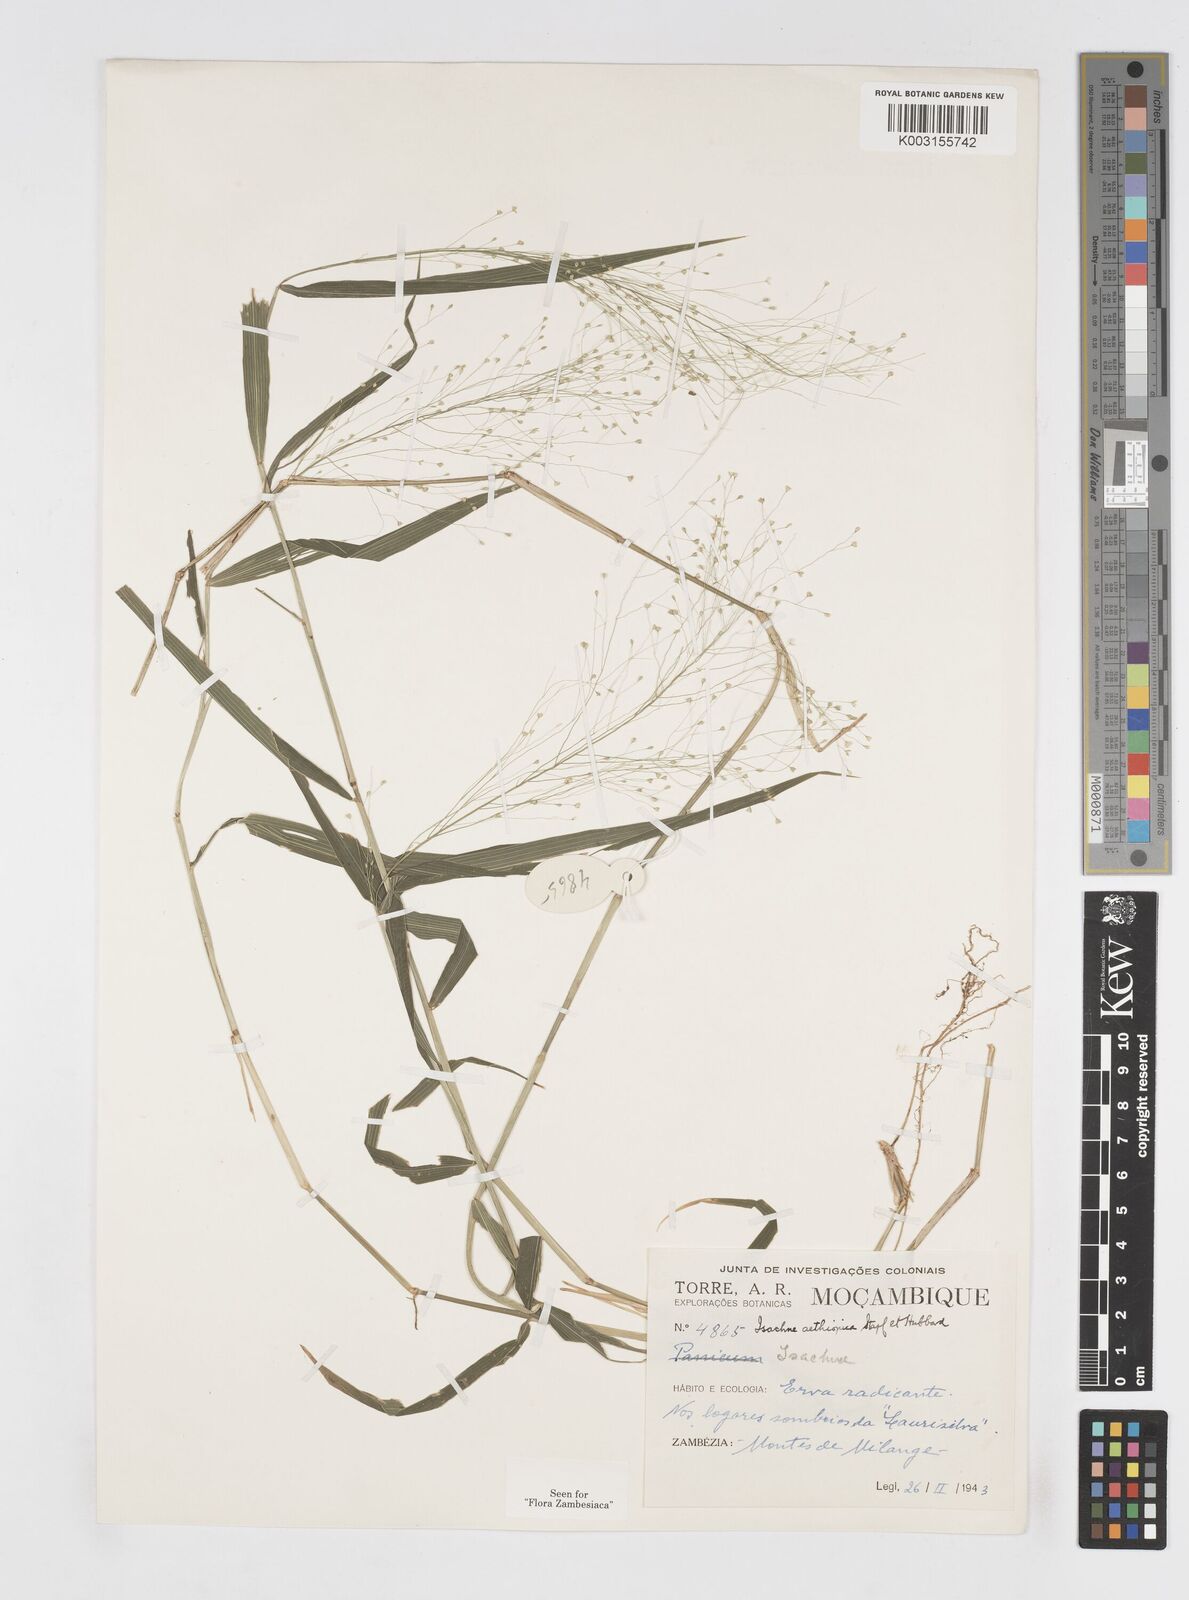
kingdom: Plantae
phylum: Tracheophyta
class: Liliopsida
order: Poales
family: Poaceae
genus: Isachne
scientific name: Isachne mauritiana
